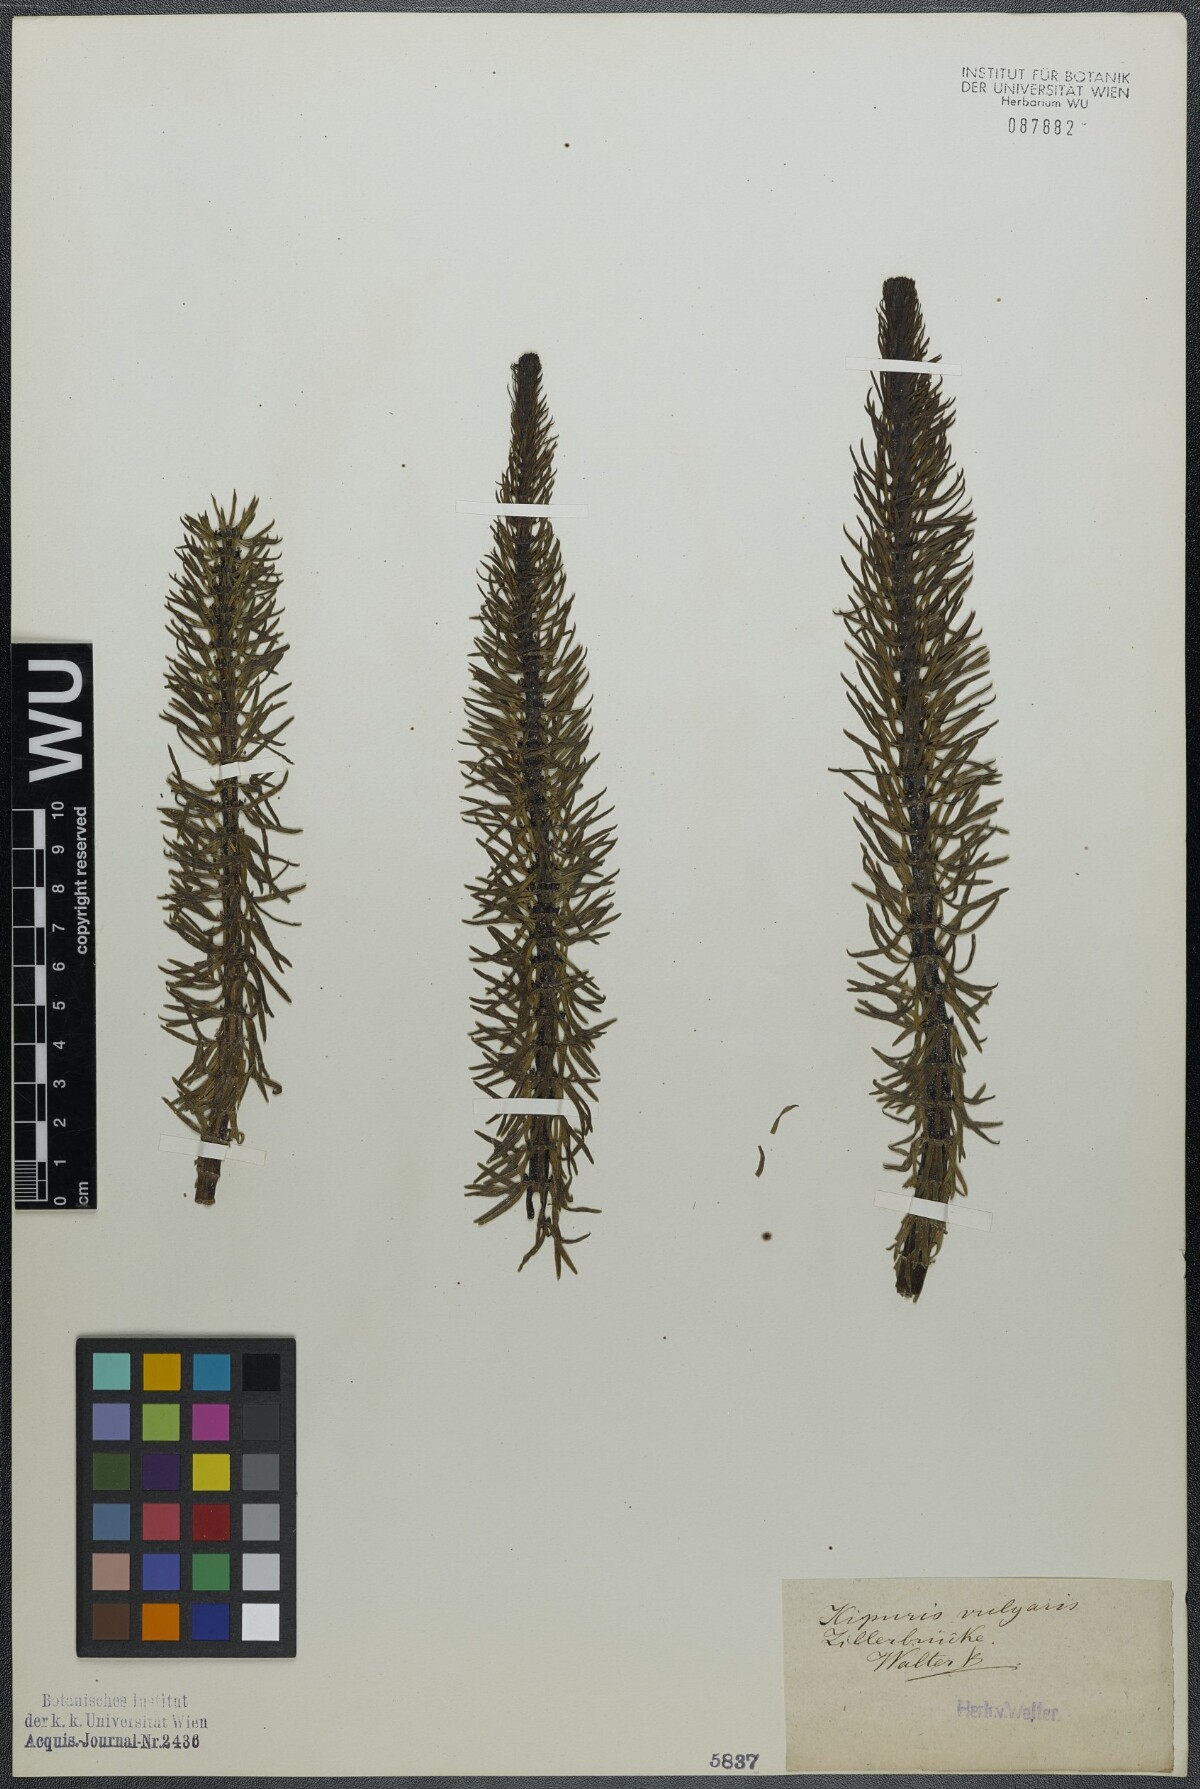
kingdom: Plantae
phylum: Tracheophyta
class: Magnoliopsida
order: Lamiales
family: Plantaginaceae
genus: Hippuris
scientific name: Hippuris vulgaris
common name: Mare's-tail
